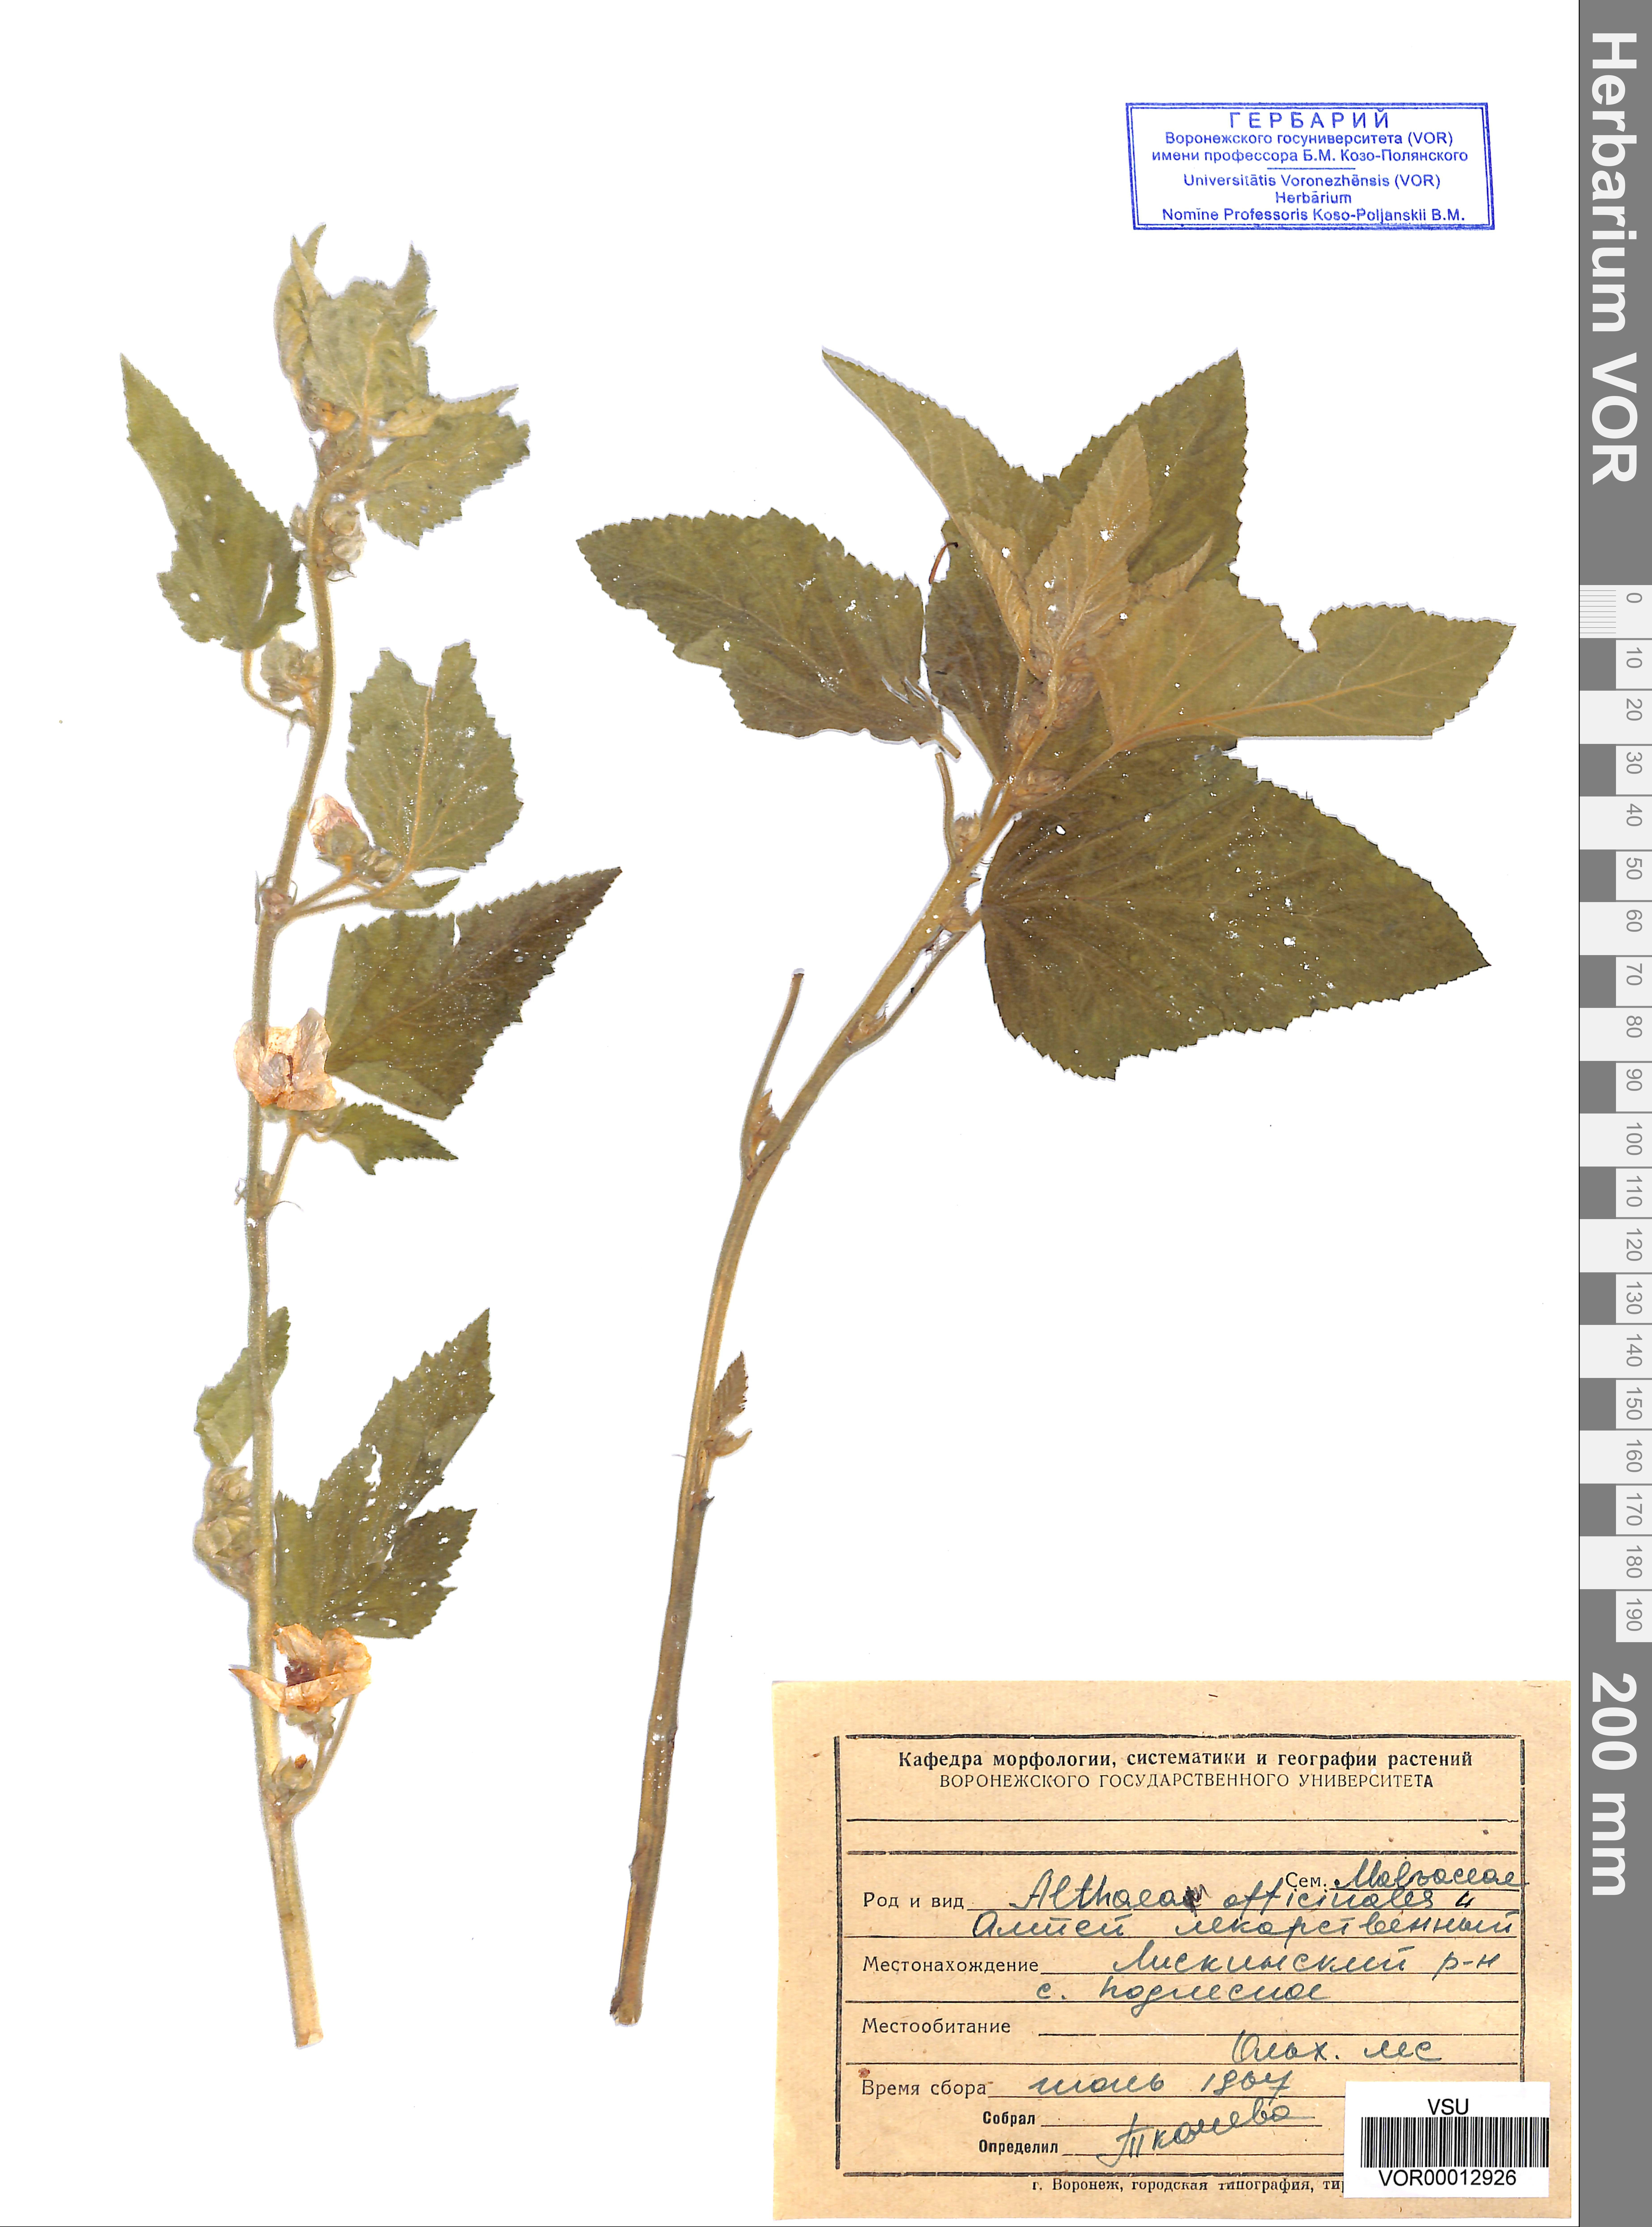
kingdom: Plantae
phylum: Tracheophyta
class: Magnoliopsida
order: Malvales
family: Malvaceae
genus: Althaea
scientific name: Althaea officinalis
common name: Marsh-mallow
